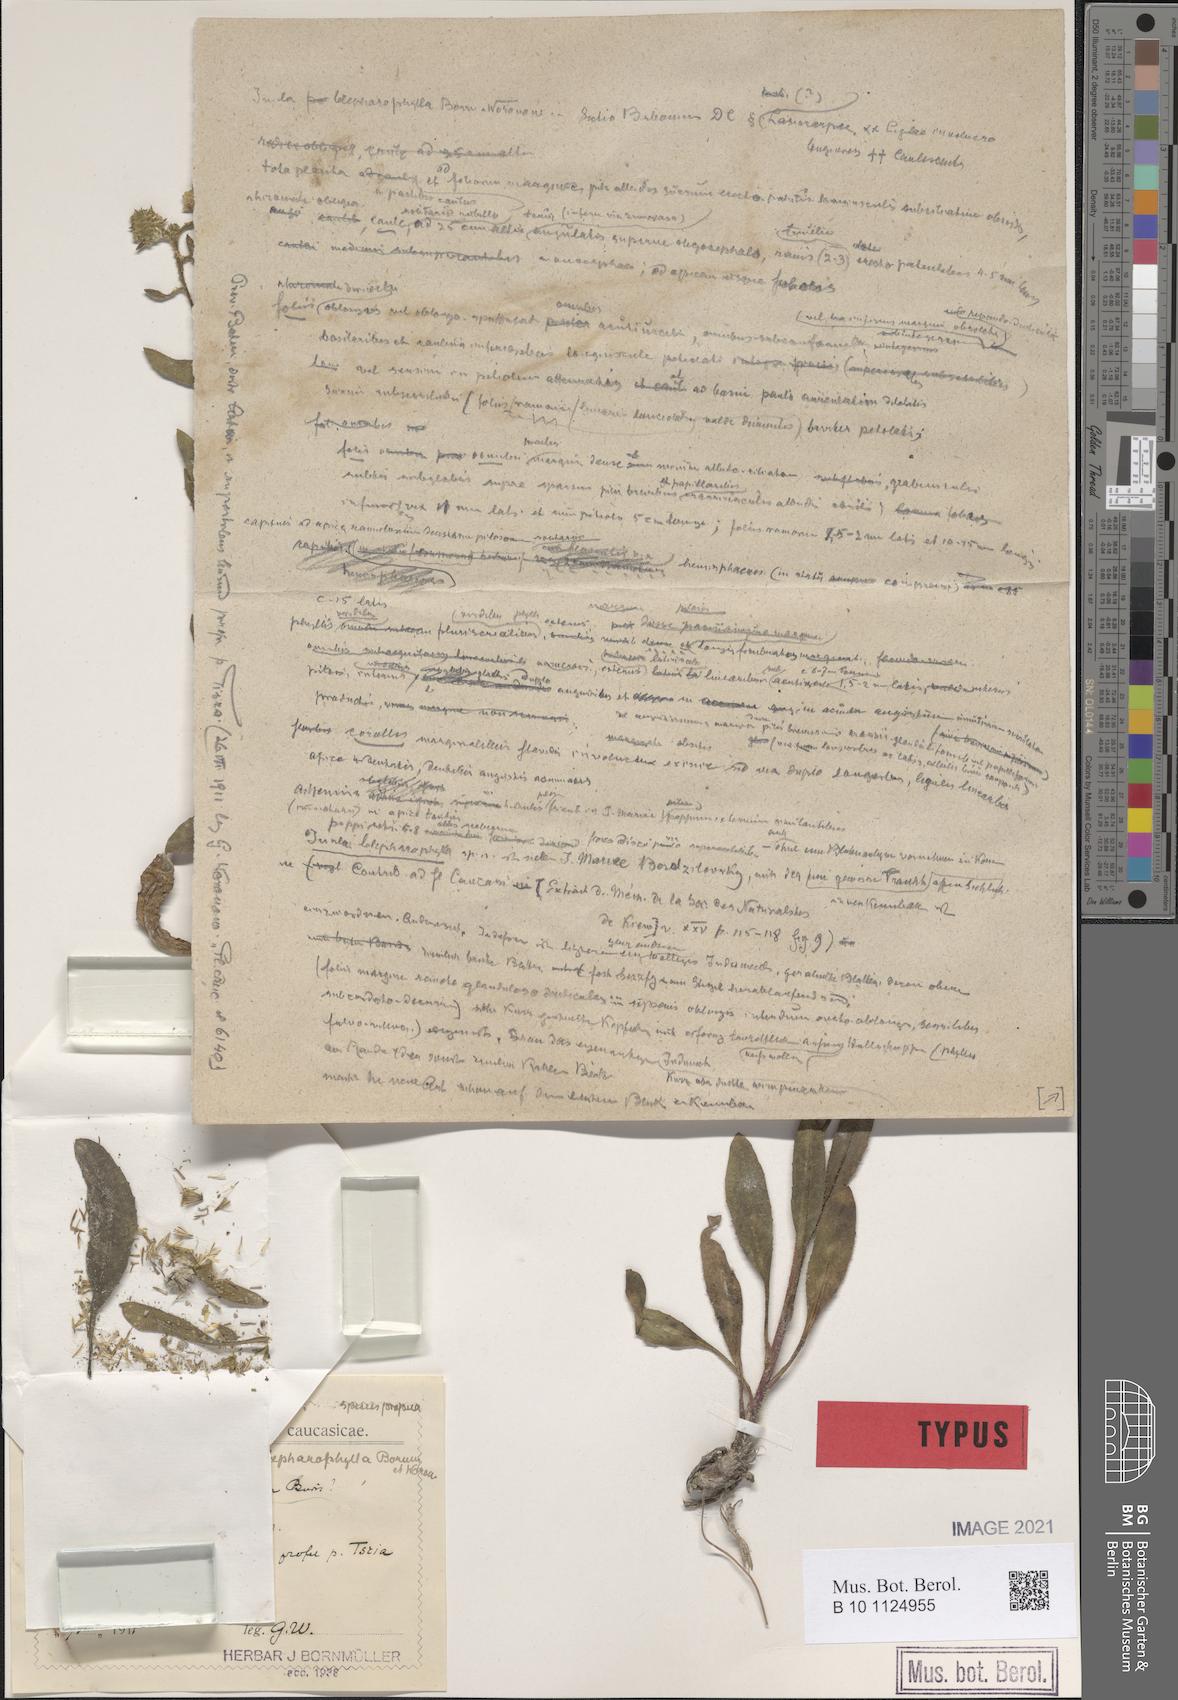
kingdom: Plantae
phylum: Tracheophyta
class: Magnoliopsida
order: Asterales
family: Asteraceae
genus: Inula
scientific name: Inula blepharophylla
